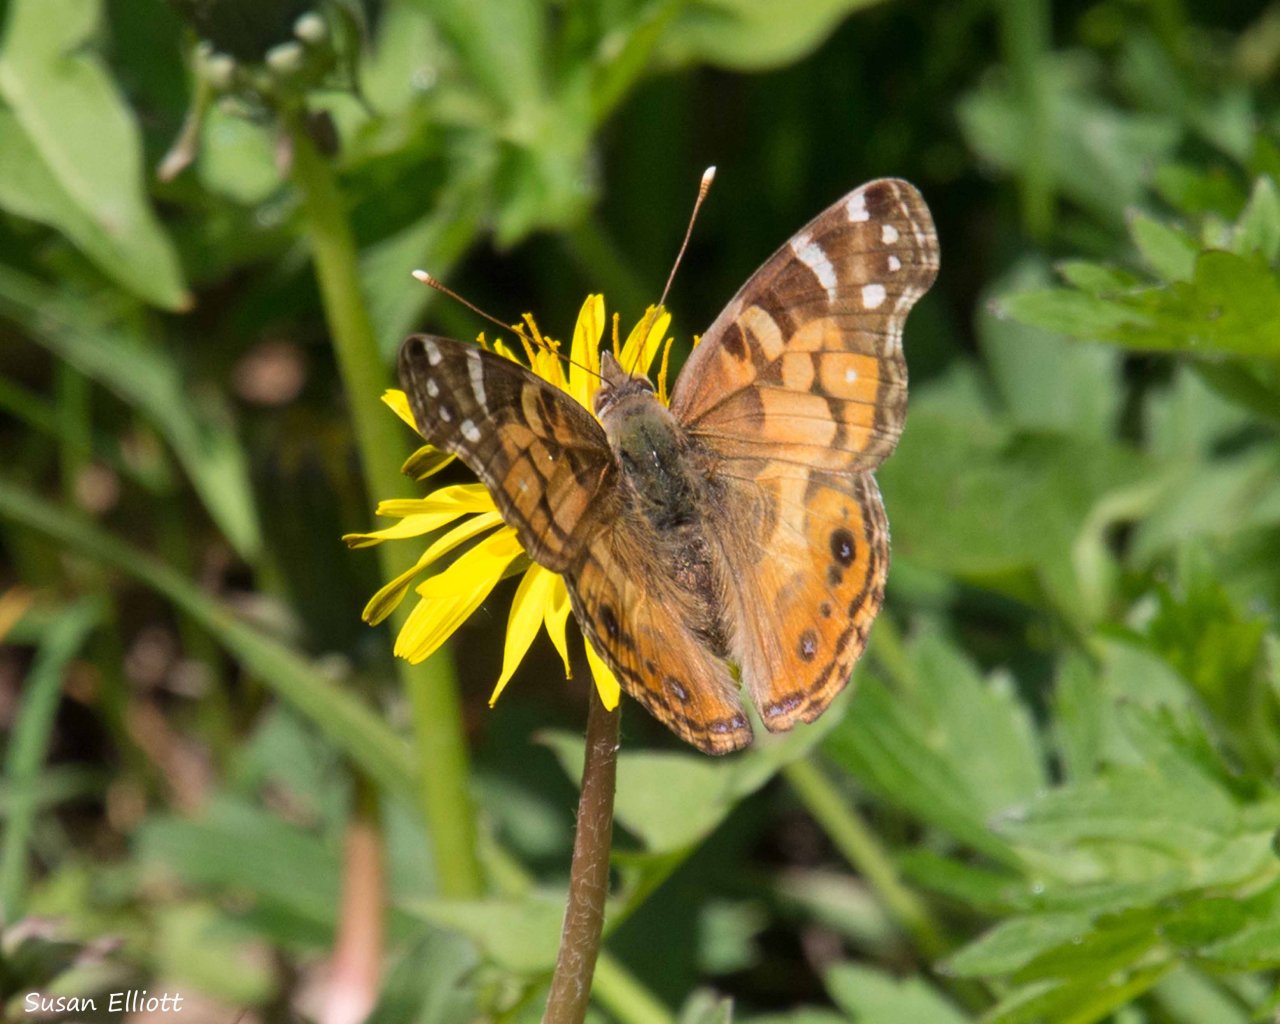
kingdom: Animalia
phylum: Arthropoda
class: Insecta
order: Lepidoptera
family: Nymphalidae
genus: Vanessa
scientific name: Vanessa virginiensis
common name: American Lady
